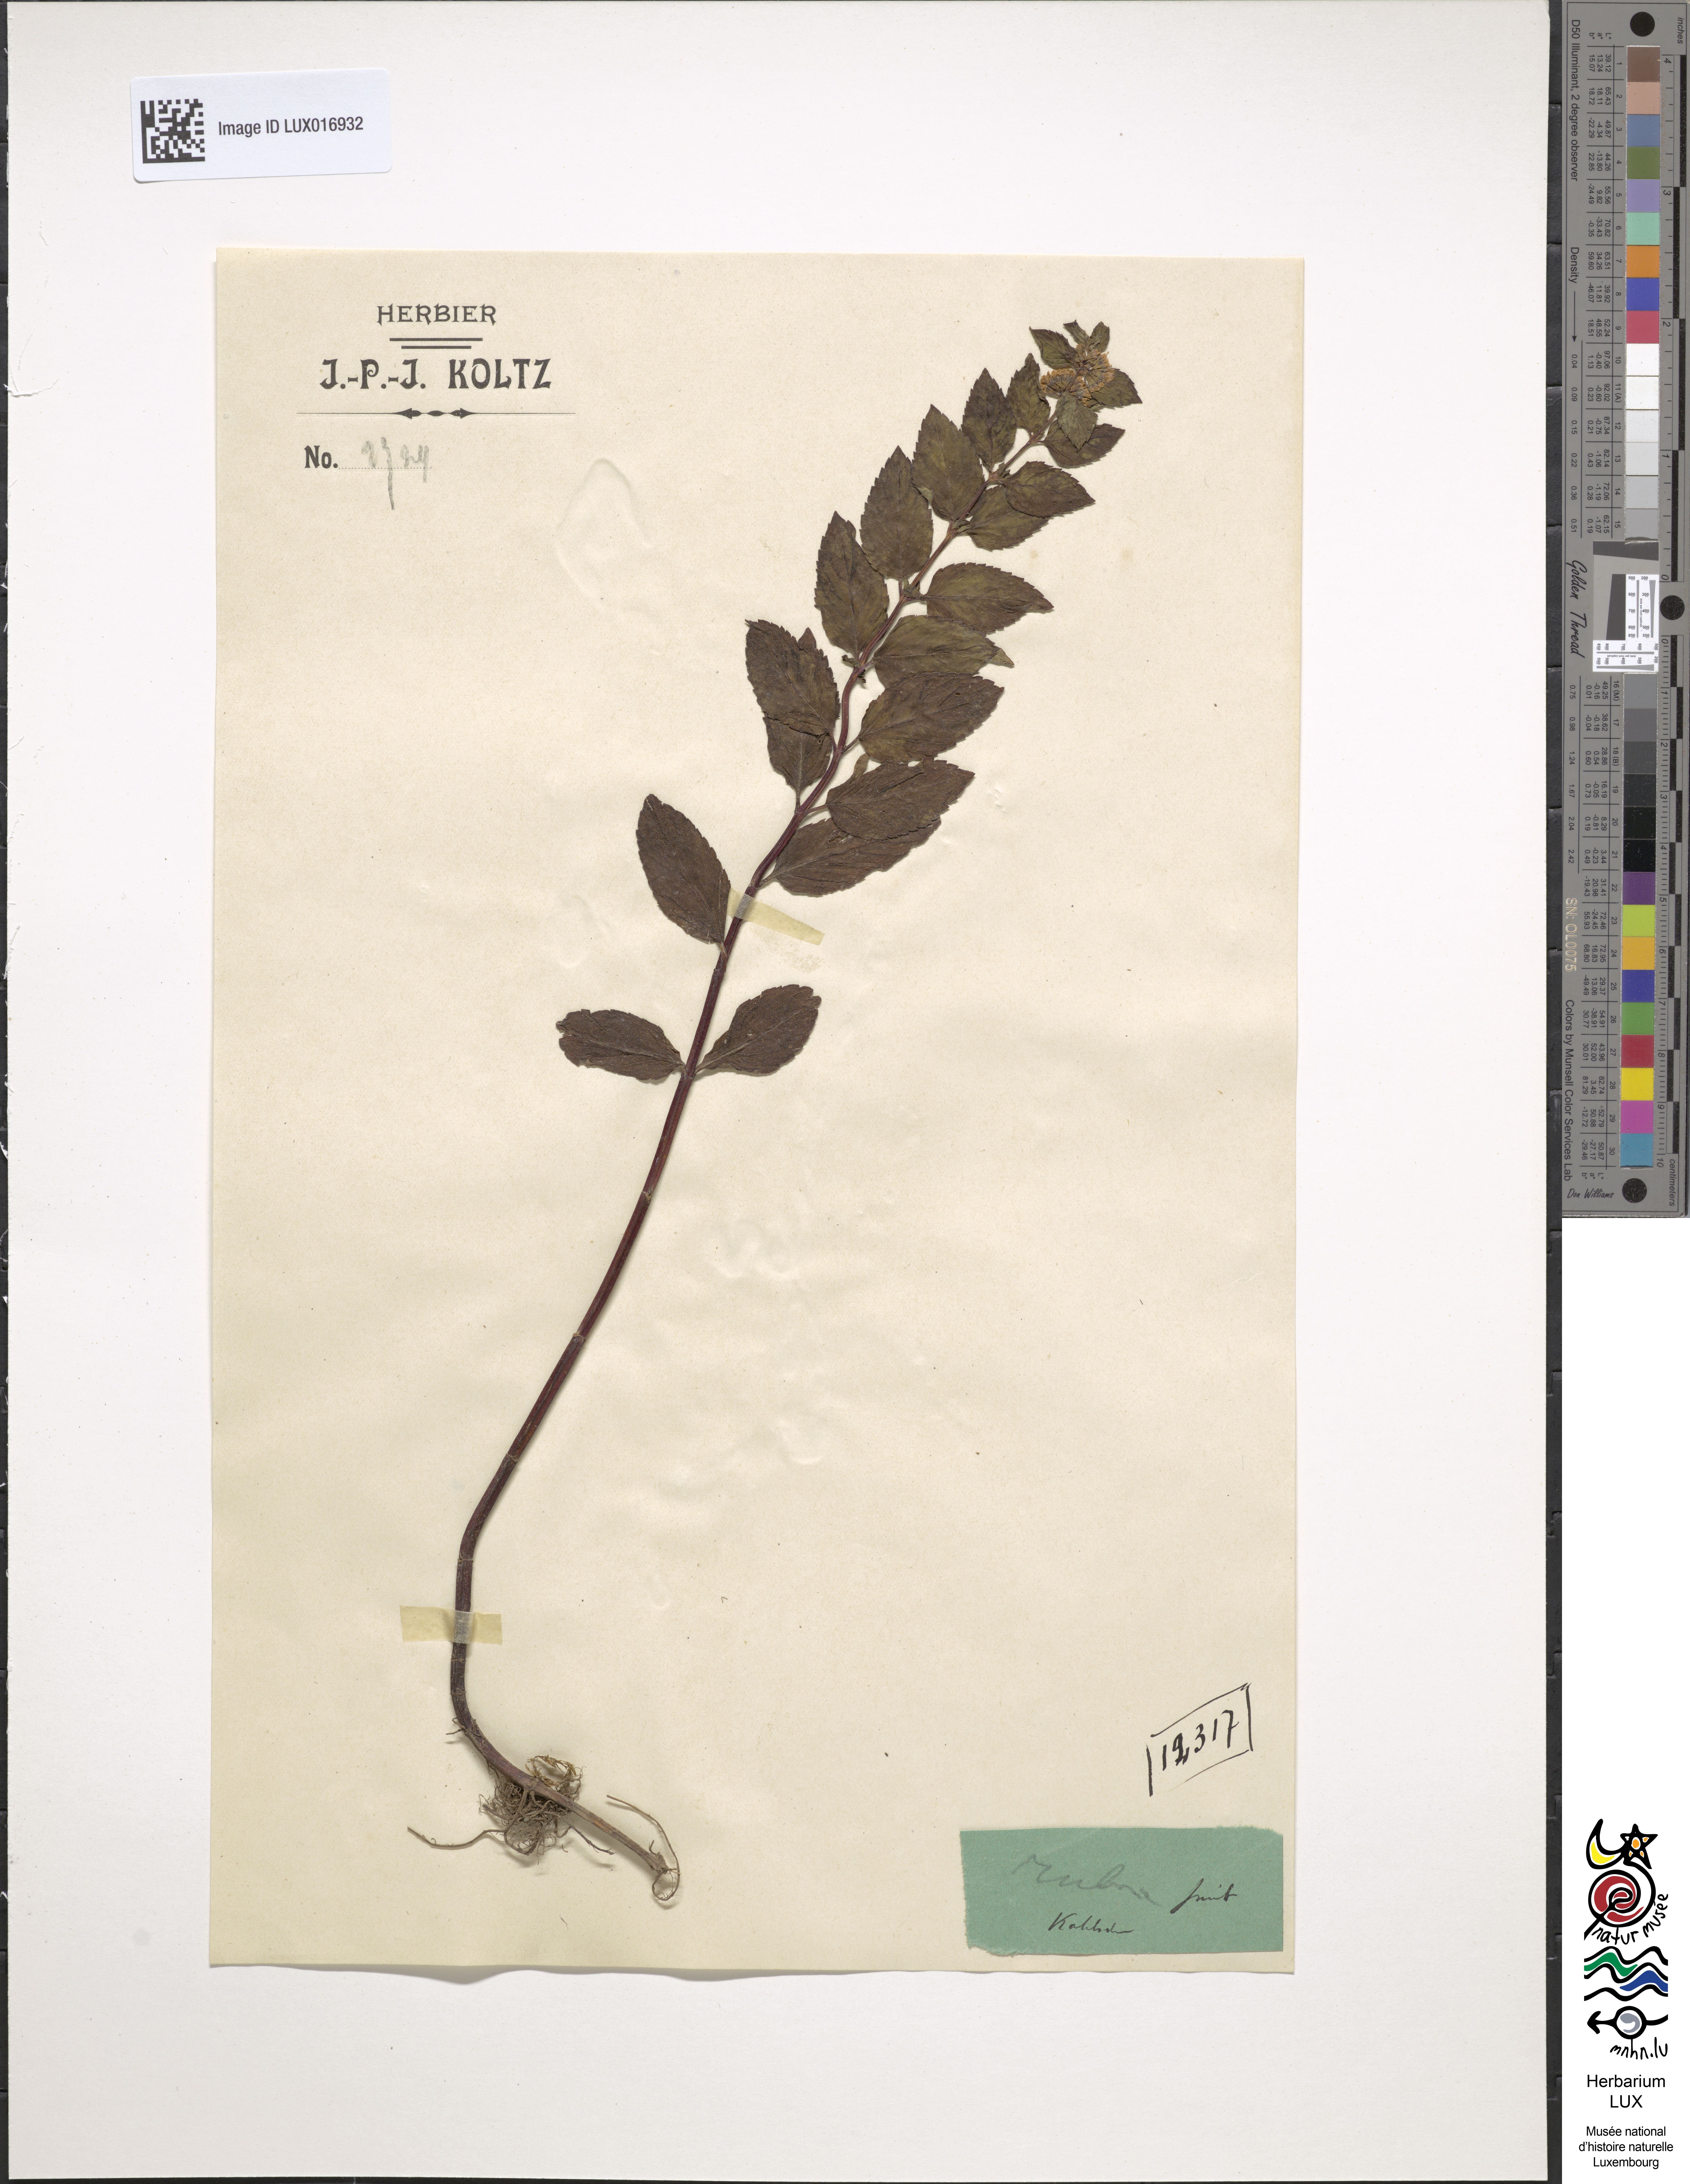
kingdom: Plantae
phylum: Tracheophyta
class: Magnoliopsida
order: Lamiales
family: Lamiaceae
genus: Mentha
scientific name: Mentha wirtgeniana
